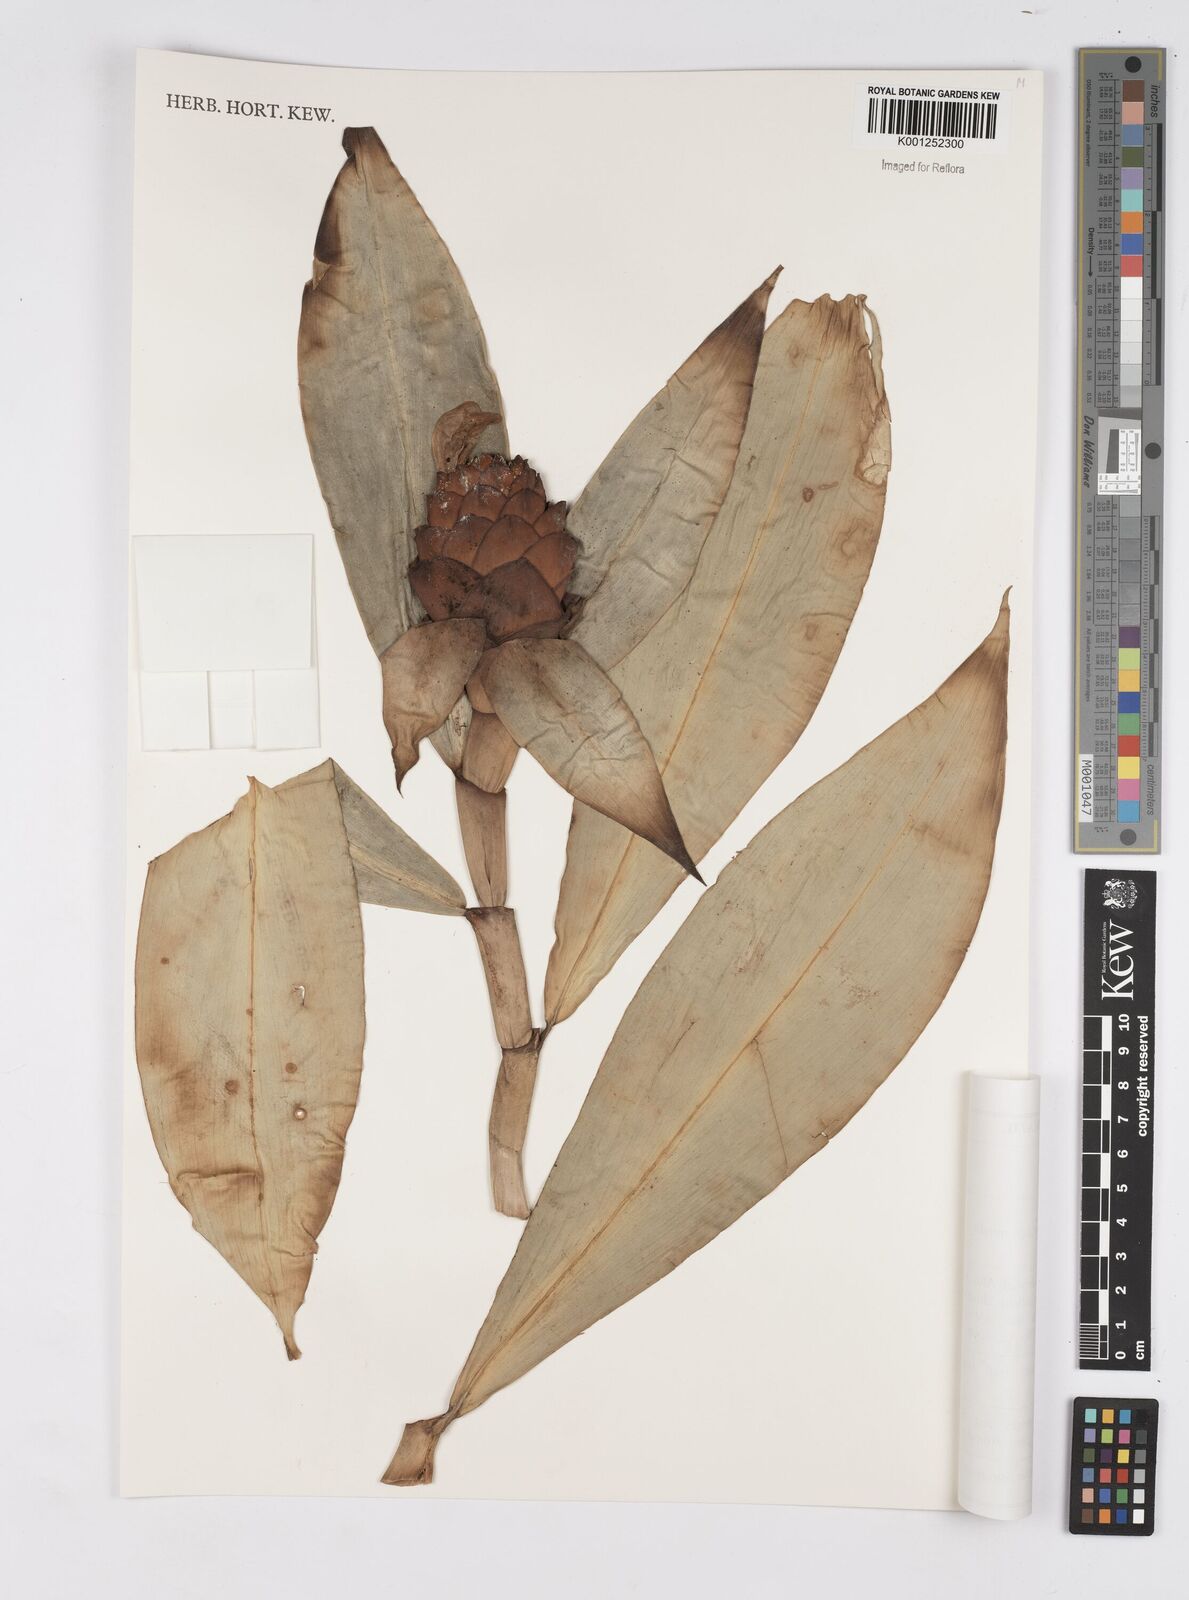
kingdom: Plantae
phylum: Tracheophyta
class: Liliopsida
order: Zingiberales
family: Costaceae
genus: Costus
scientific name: Costus spiralis
